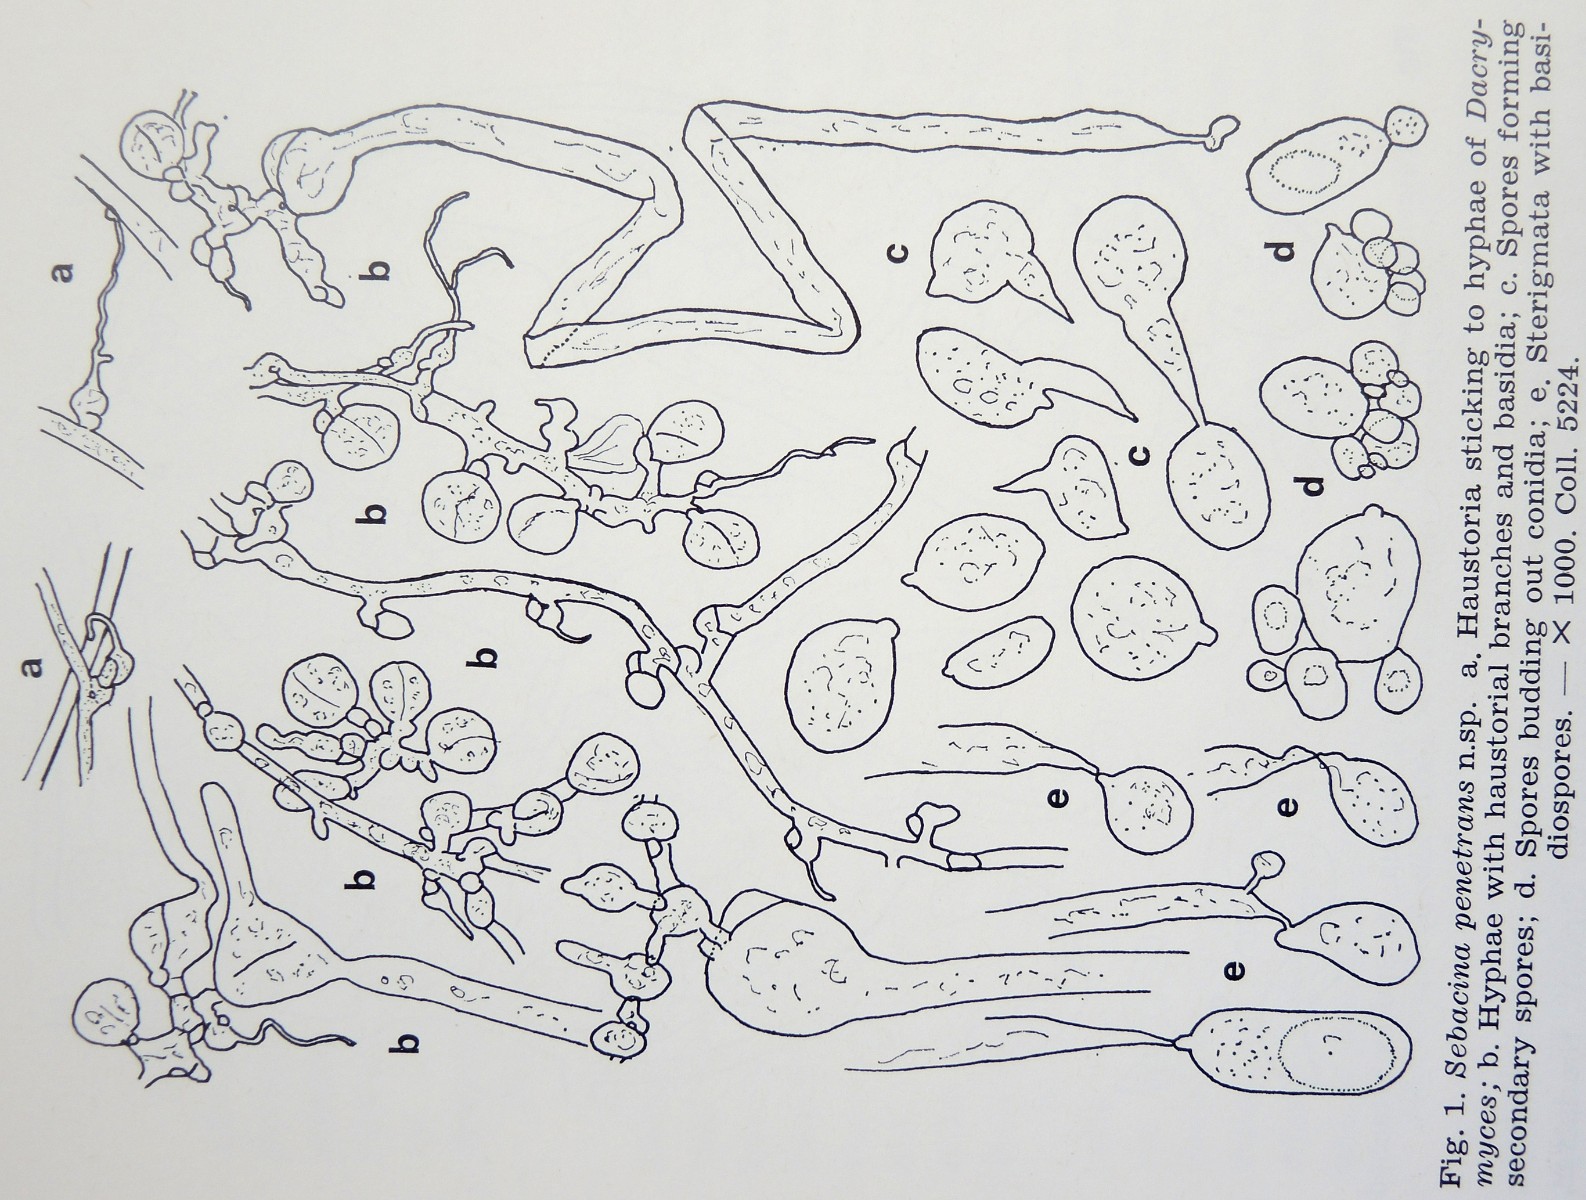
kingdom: Fungi
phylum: Basidiomycota
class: Tremellomycetes
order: Tremellales
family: Tremellaceae
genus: Tremella
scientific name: Tremella penetrans
